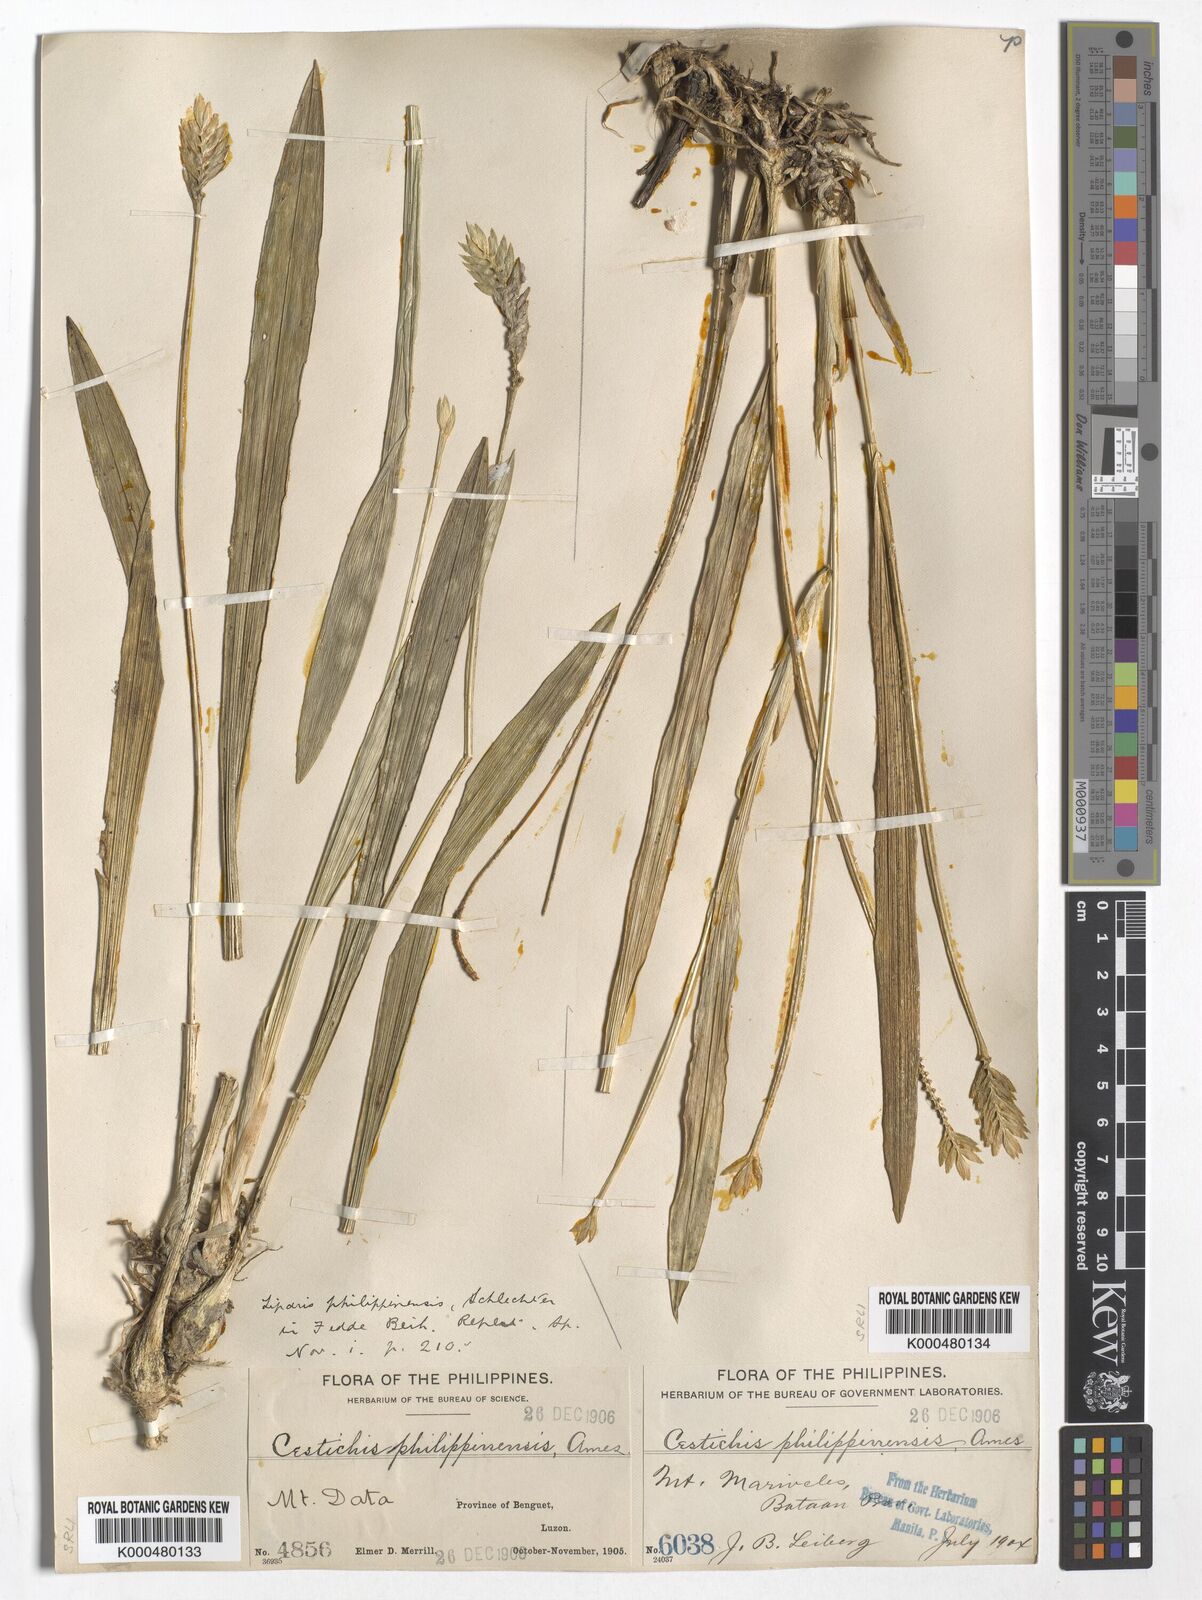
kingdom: Plantae
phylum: Tracheophyta
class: Liliopsida
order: Asparagales
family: Orchidaceae
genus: Liparis
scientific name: Liparis philippinensis
